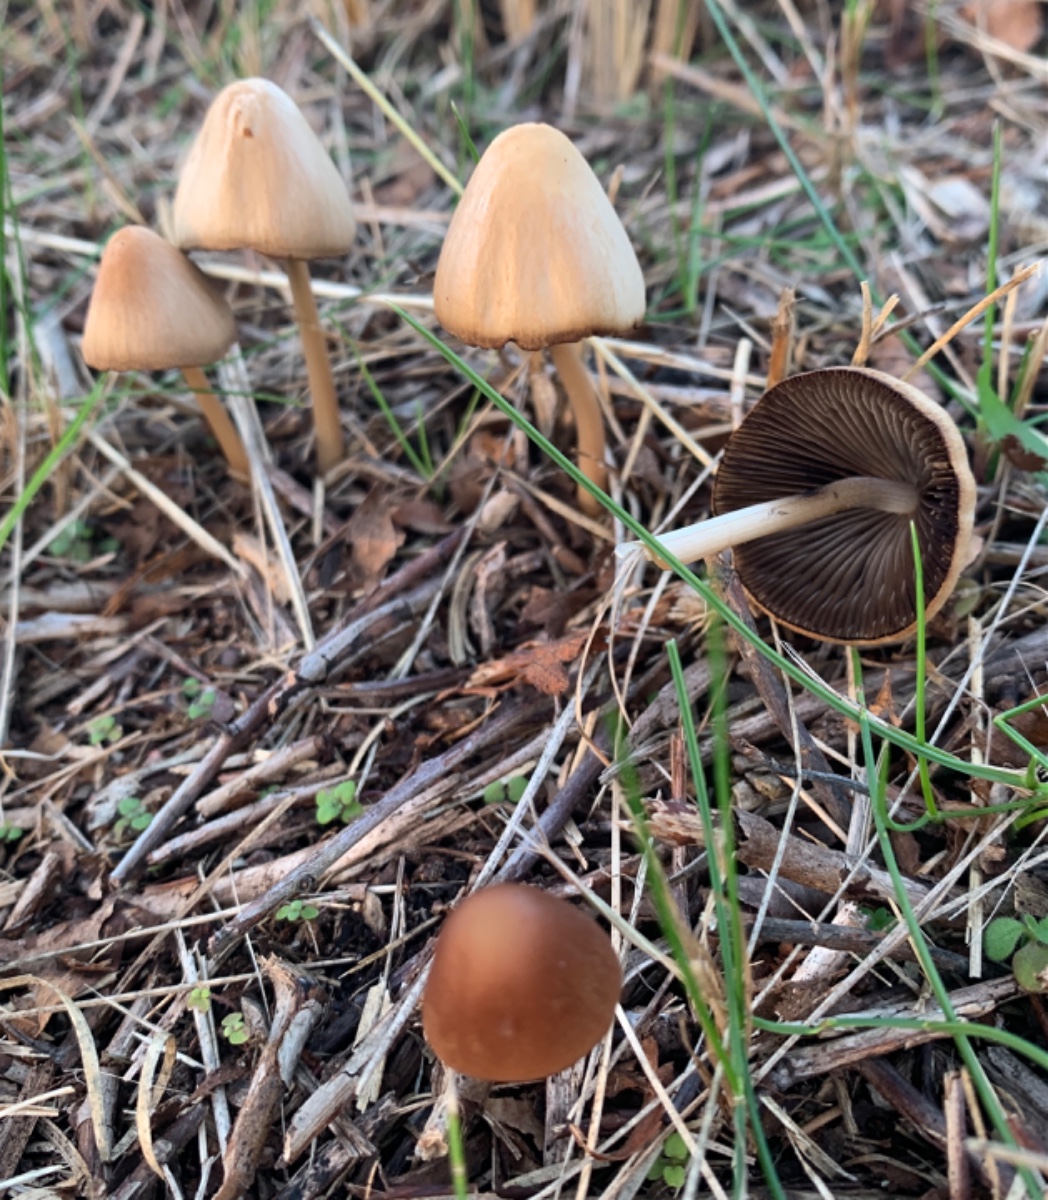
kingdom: Fungi
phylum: Basidiomycota
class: Agaricomycetes
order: Agaricales
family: Psathyrellaceae
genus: Parasola
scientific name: Parasola conopilea
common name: kegle-hjulhat
